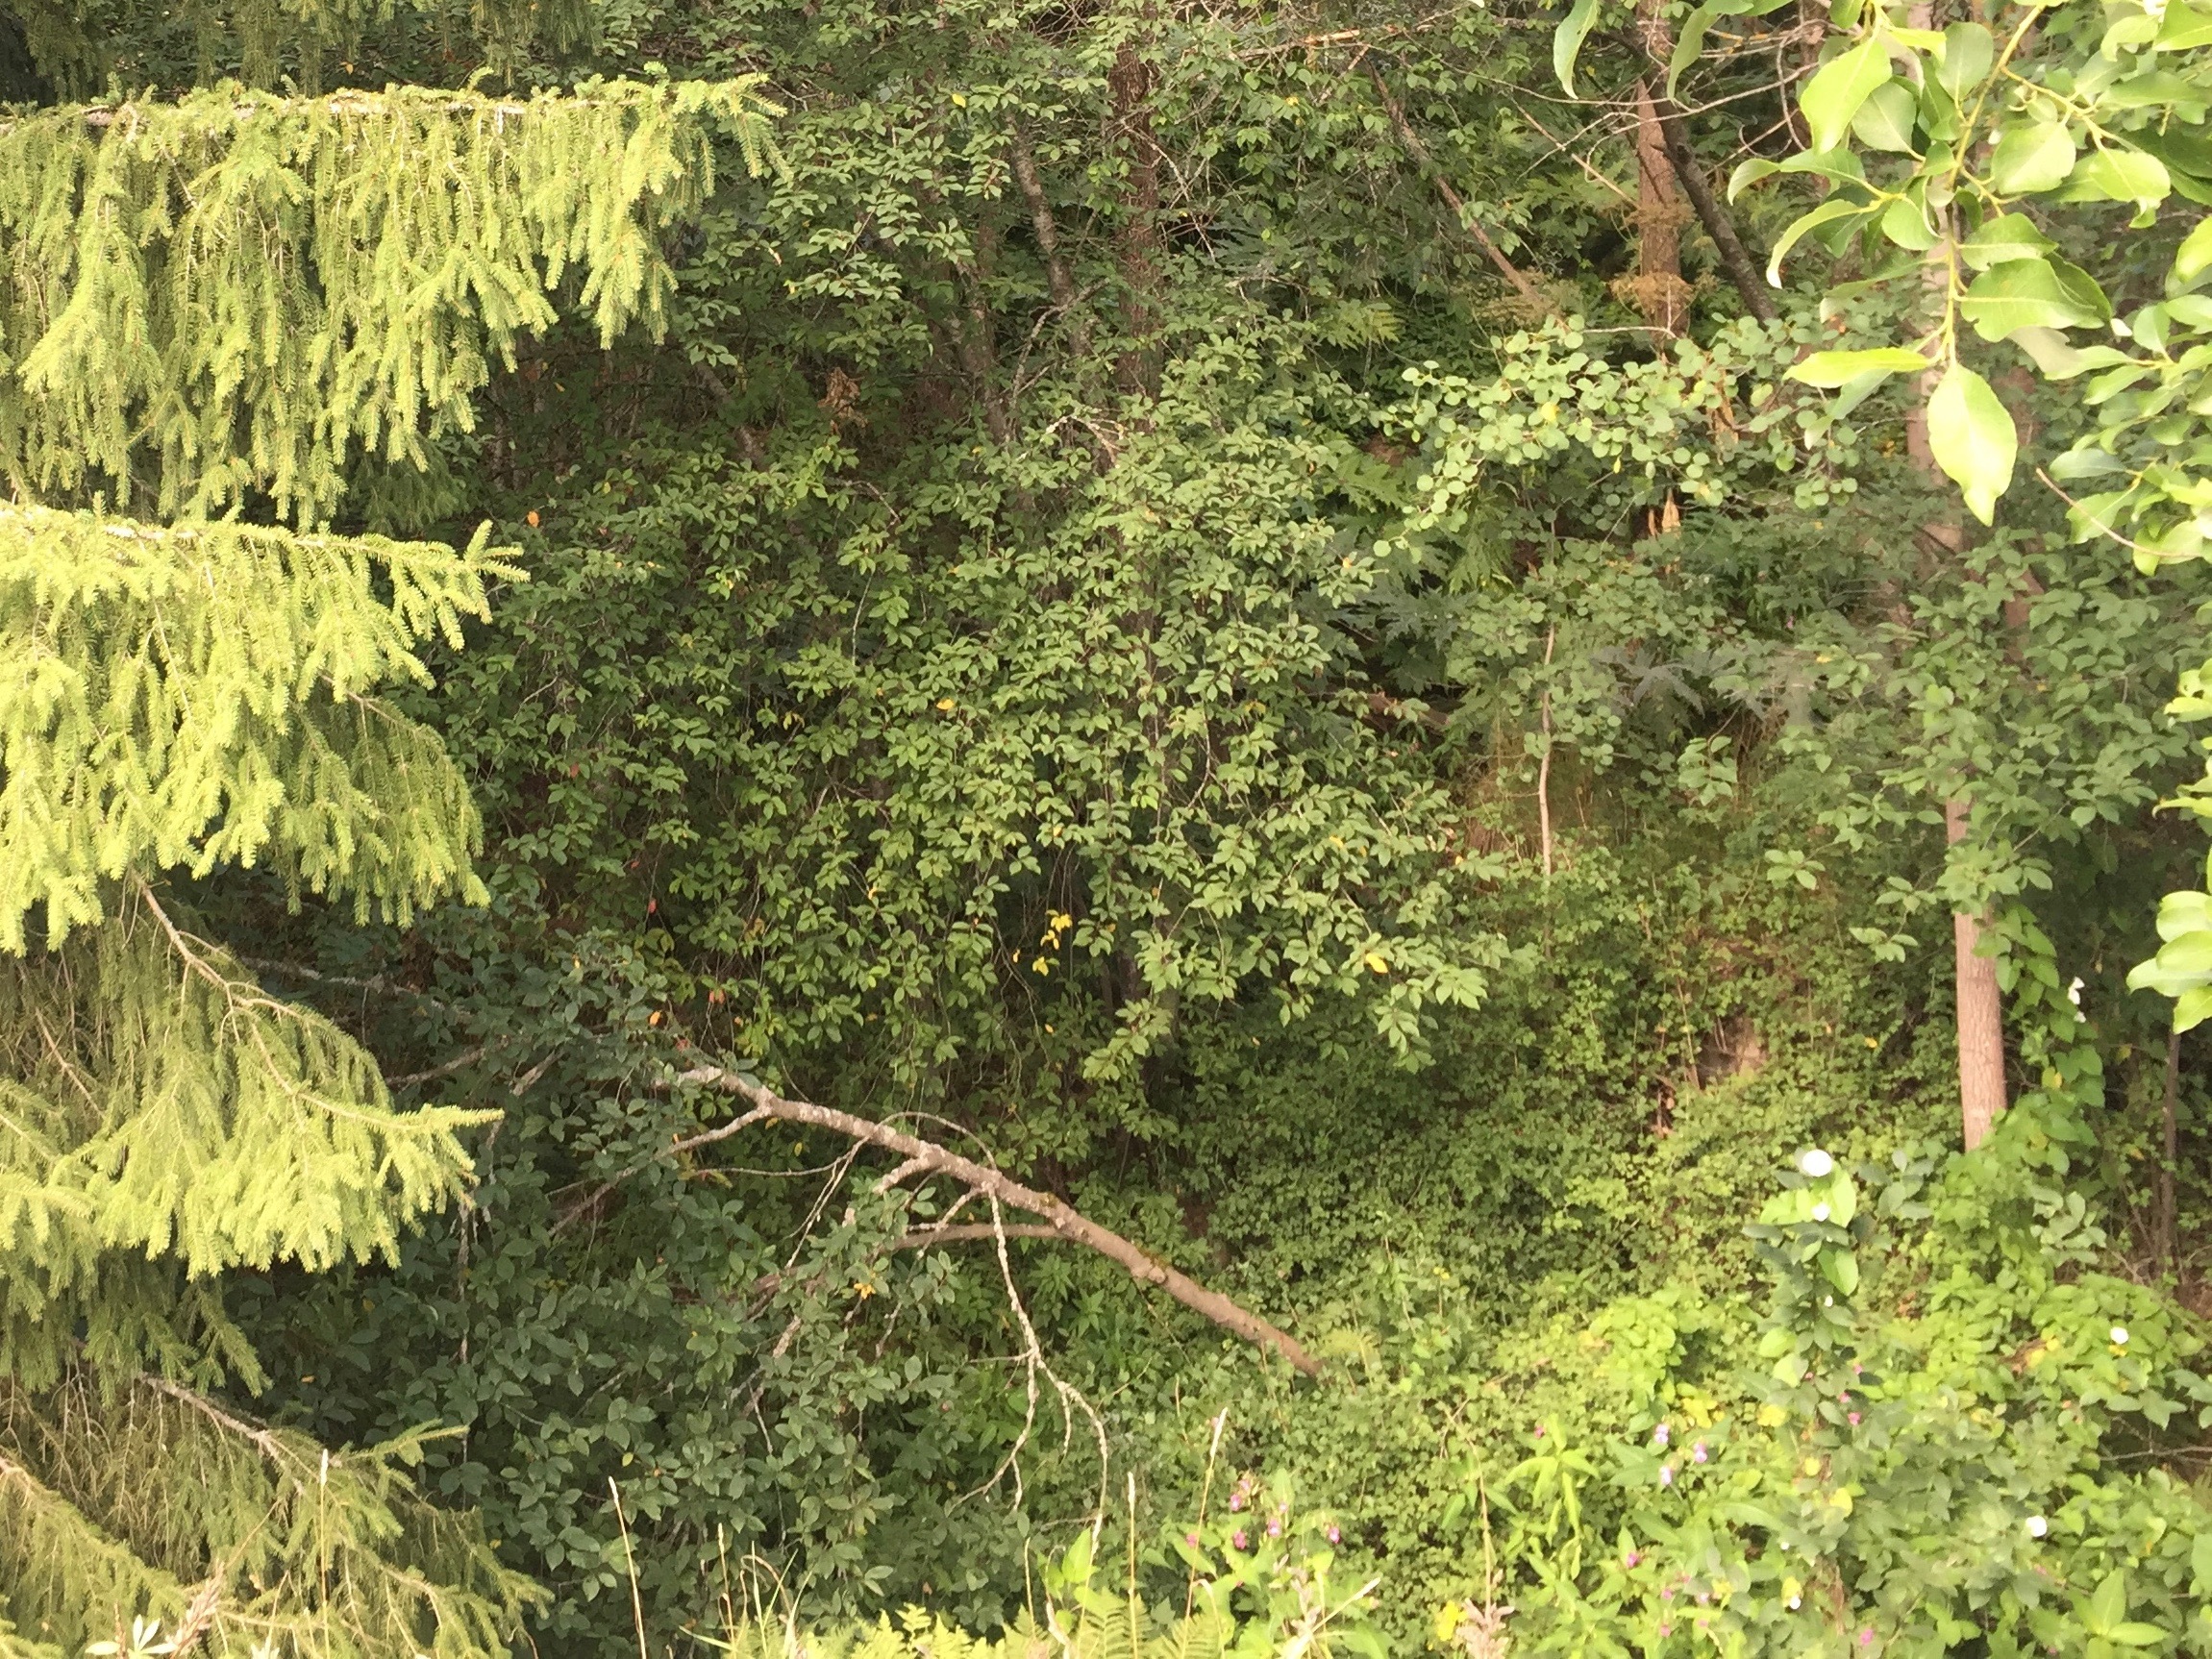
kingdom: Plantae
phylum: Tracheophyta
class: Magnoliopsida
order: Apiales
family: Apiaceae
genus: Heracleum
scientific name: Heracleum
